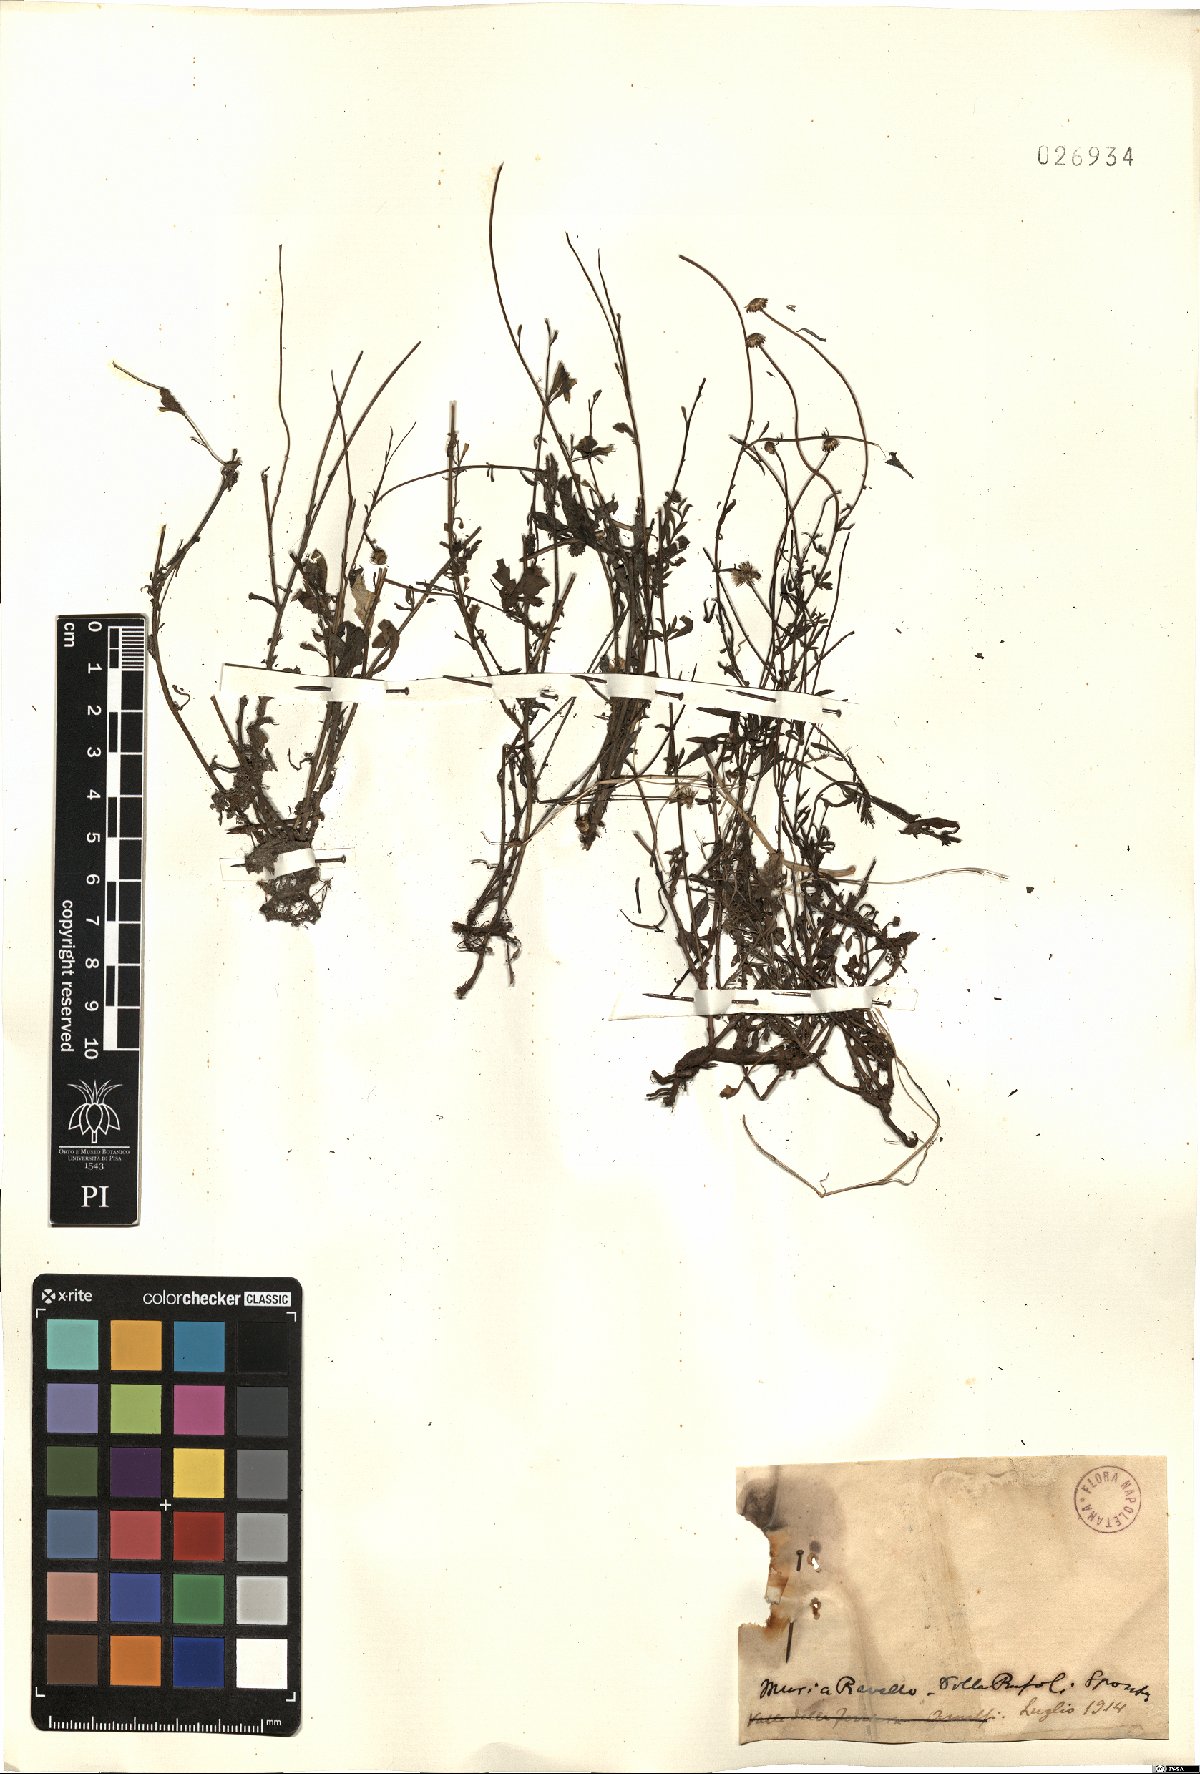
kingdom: Plantae
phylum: Tracheophyta
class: Magnoliopsida
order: Asterales
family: Asteraceae
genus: Erigeron
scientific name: Erigeron
